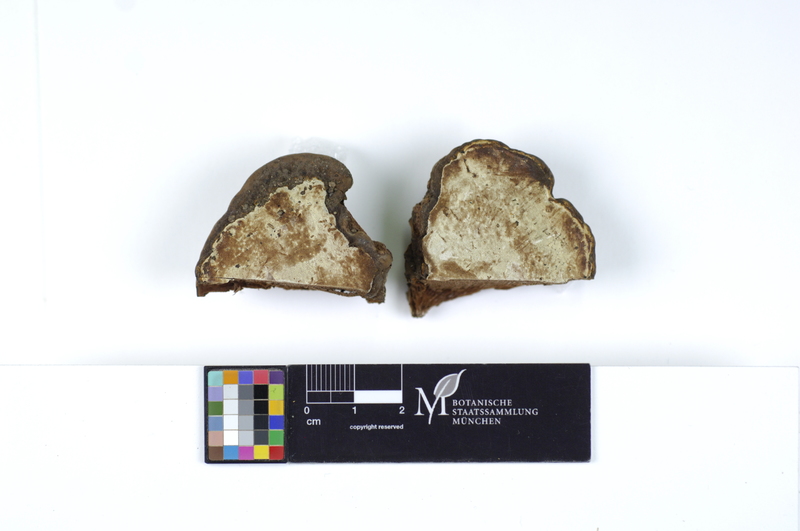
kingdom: Fungi
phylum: Basidiomycota
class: Agaricomycetes
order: Polyporales
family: Polyporaceae
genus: Ganoderma
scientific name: Ganoderma applanatum
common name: Artist's bracket
